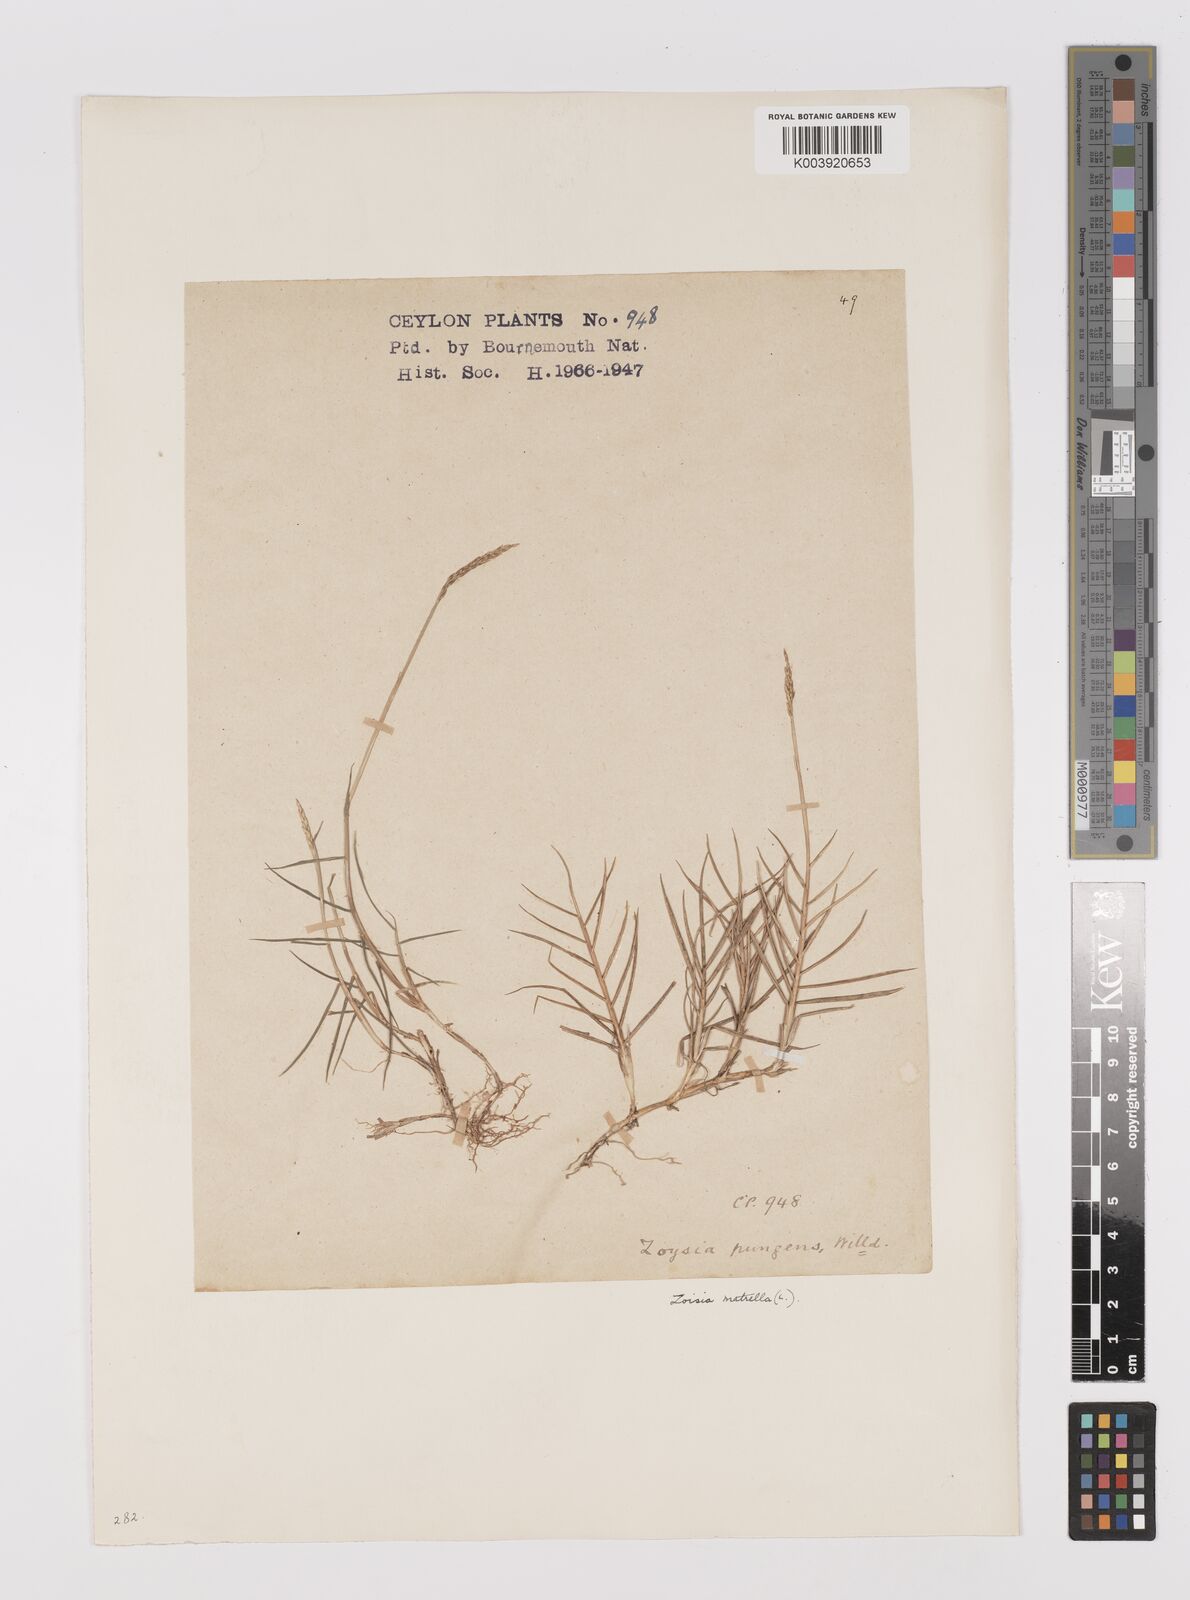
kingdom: Plantae
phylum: Tracheophyta
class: Liliopsida
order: Poales
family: Poaceae
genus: Zoysia
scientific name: Zoysia matrella
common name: Manila grass
